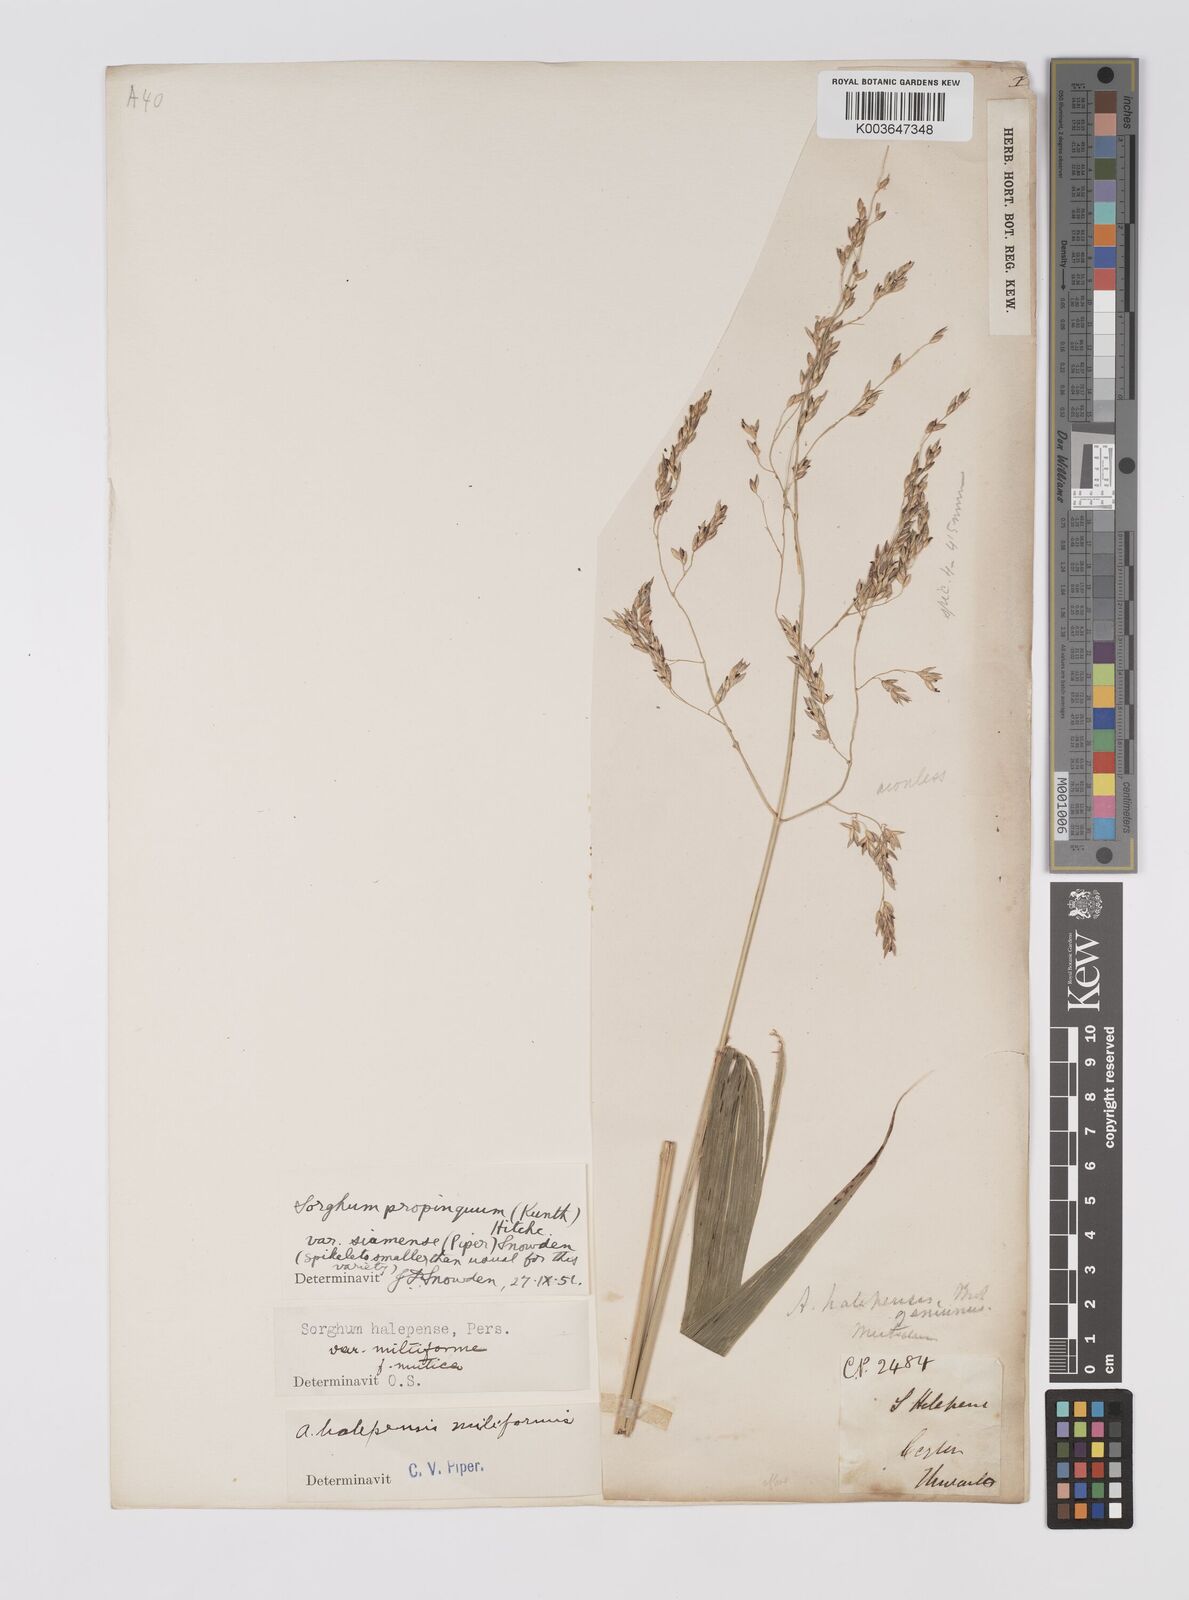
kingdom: Plantae
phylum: Tracheophyta
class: Liliopsida
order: Poales
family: Poaceae
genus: Sorghum
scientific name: Sorghum propinquum
